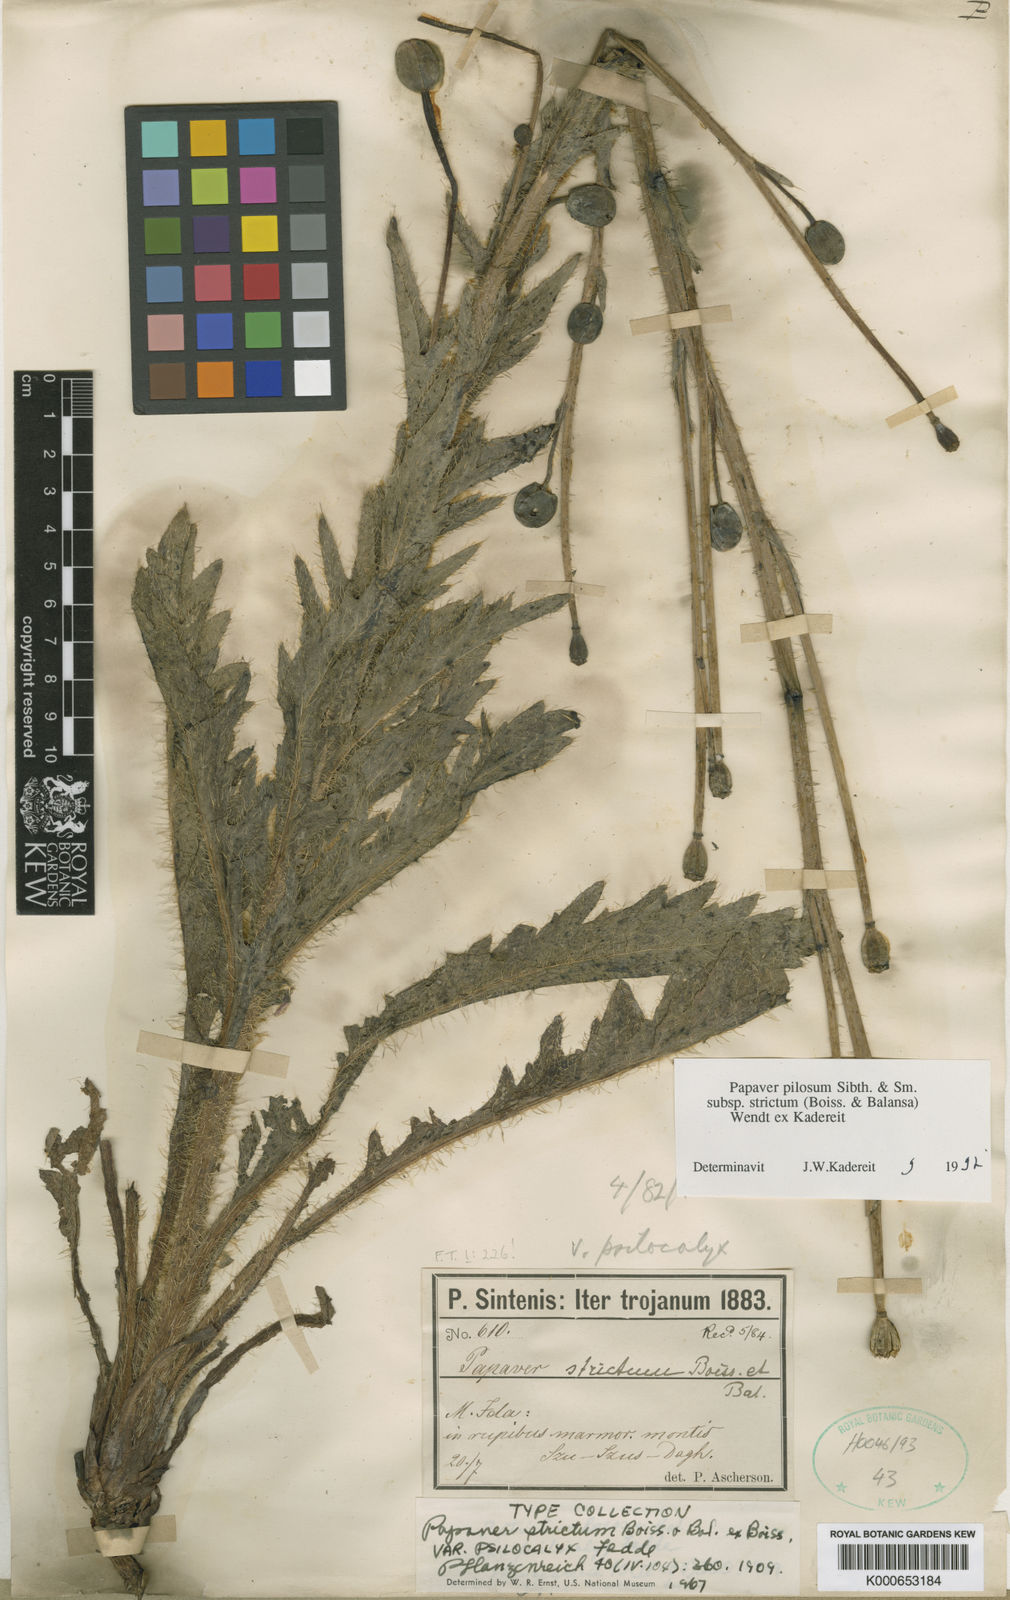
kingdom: Plantae
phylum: Tracheophyta
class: Magnoliopsida
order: Ranunculales
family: Papaveraceae
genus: Papaver
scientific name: Papaver pilosum
